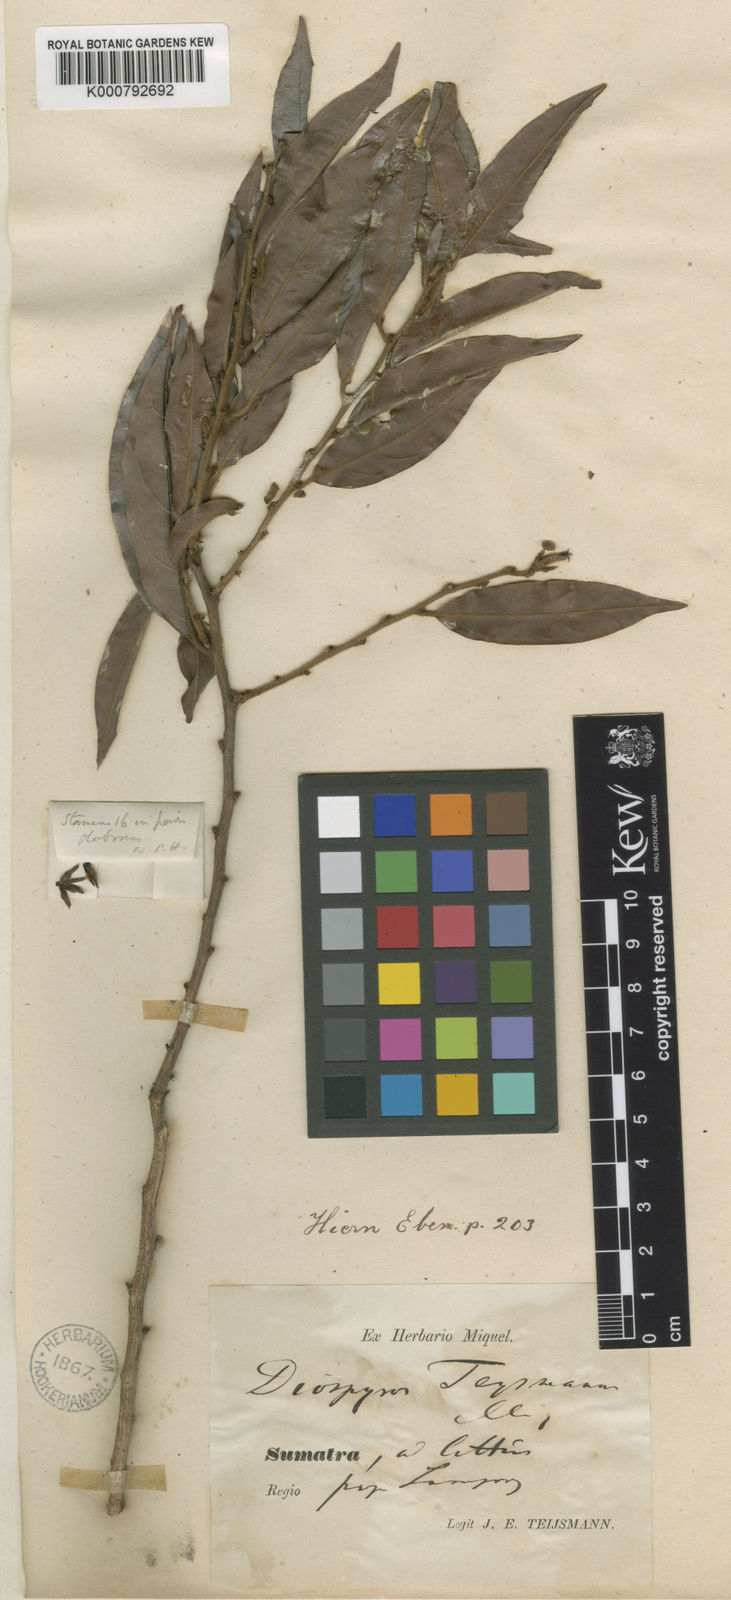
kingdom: Plantae
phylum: Tracheophyta
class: Magnoliopsida
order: Ericales
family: Ebenaceae
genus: Diospyros
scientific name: Diospyros eriantha
